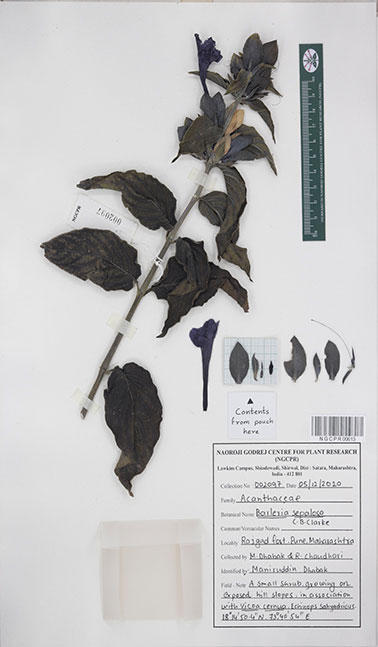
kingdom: Plantae
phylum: Tracheophyta
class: Magnoliopsida
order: Lamiales
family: Acanthaceae
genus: Barleria
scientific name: Barleria lawii
